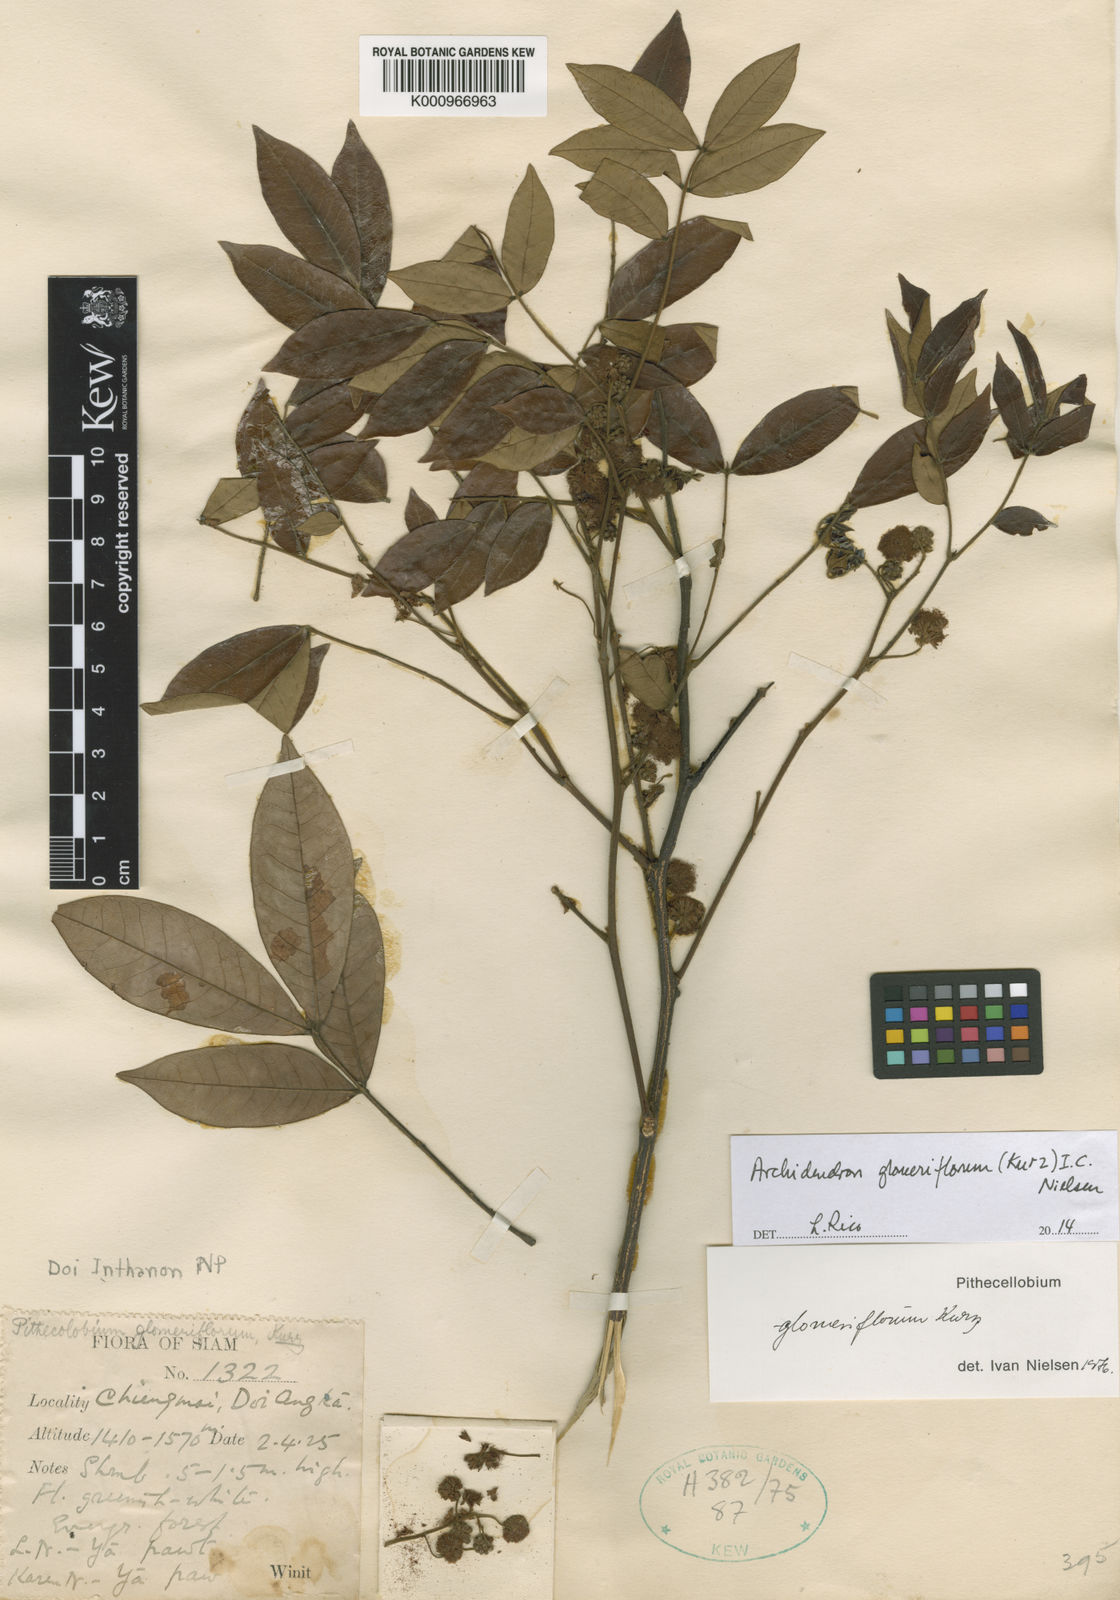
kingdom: Plantae
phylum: Tracheophyta
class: Magnoliopsida
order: Fabales
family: Fabaceae
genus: Archidendron
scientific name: Archidendron glomeriflorum
